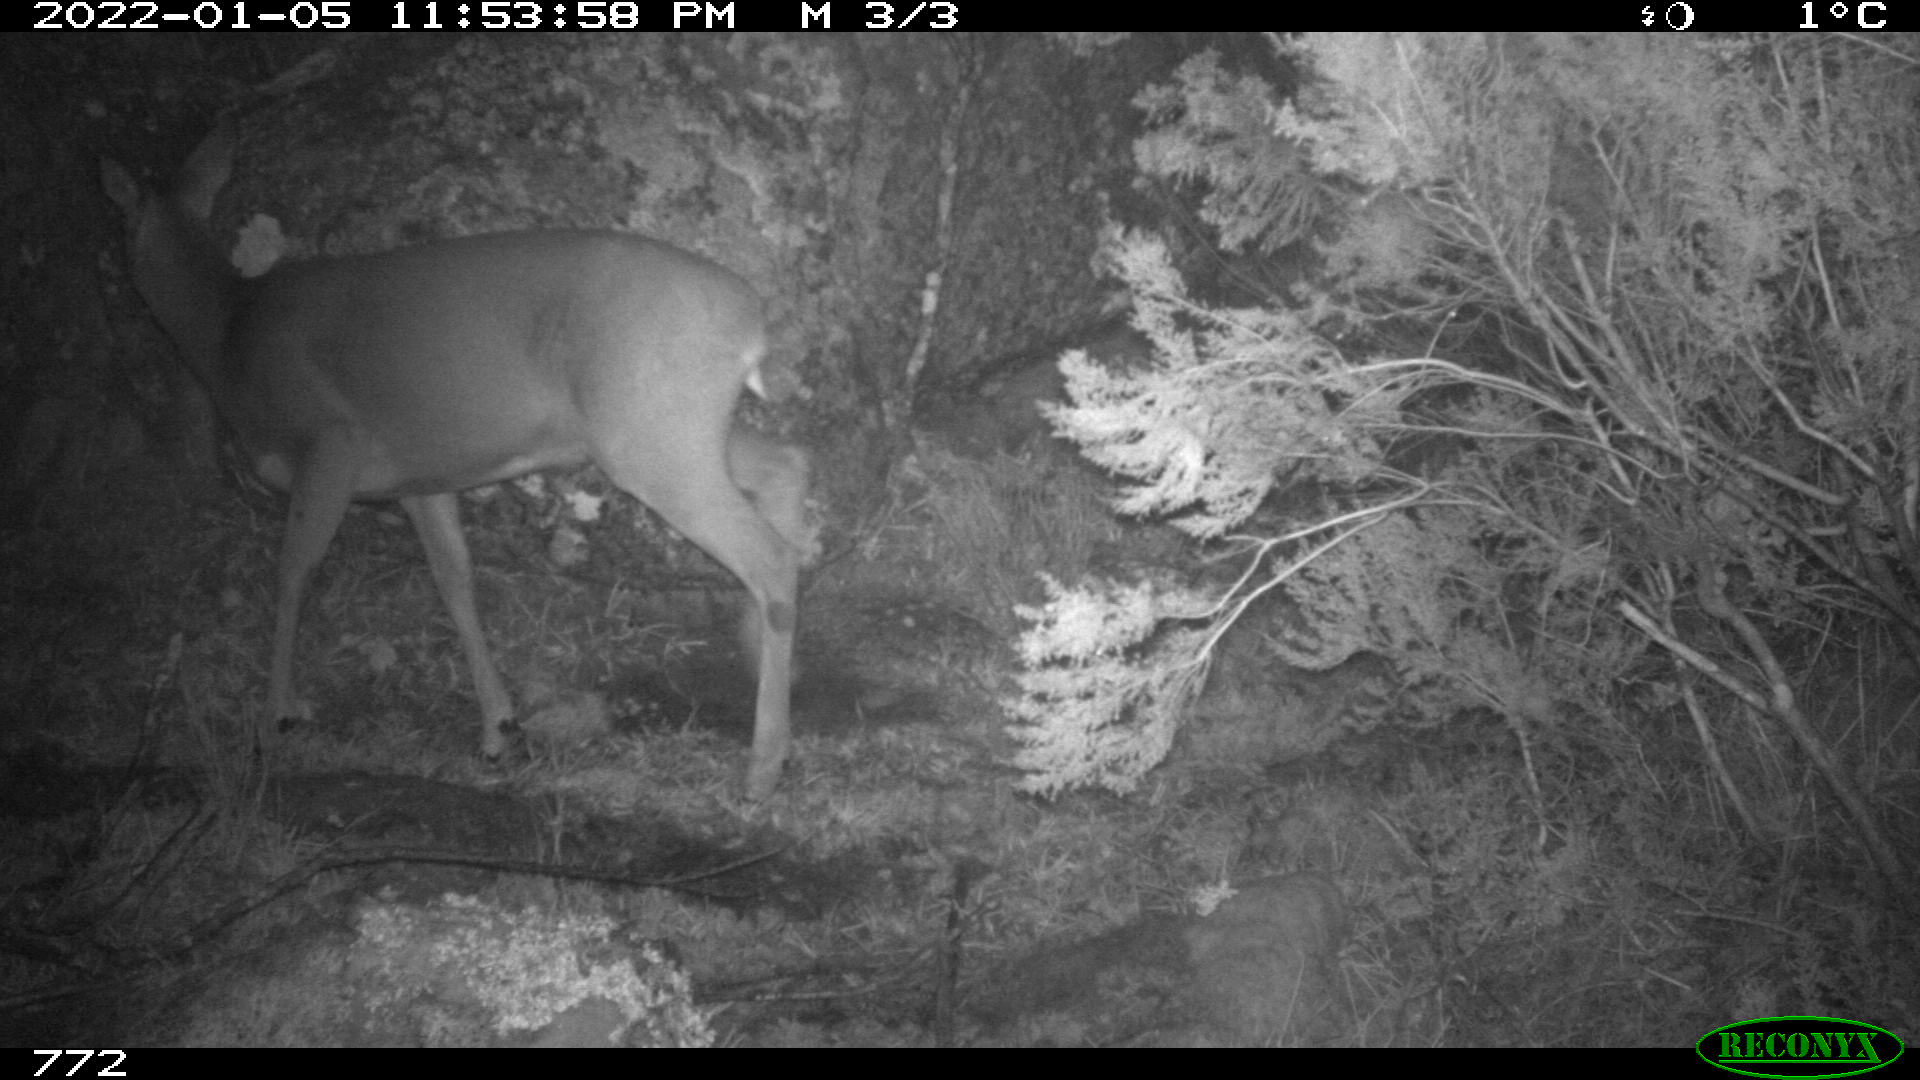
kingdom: Animalia
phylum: Chordata
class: Mammalia
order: Artiodactyla
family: Cervidae
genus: Capreolus
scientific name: Capreolus capreolus
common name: Western roe deer
